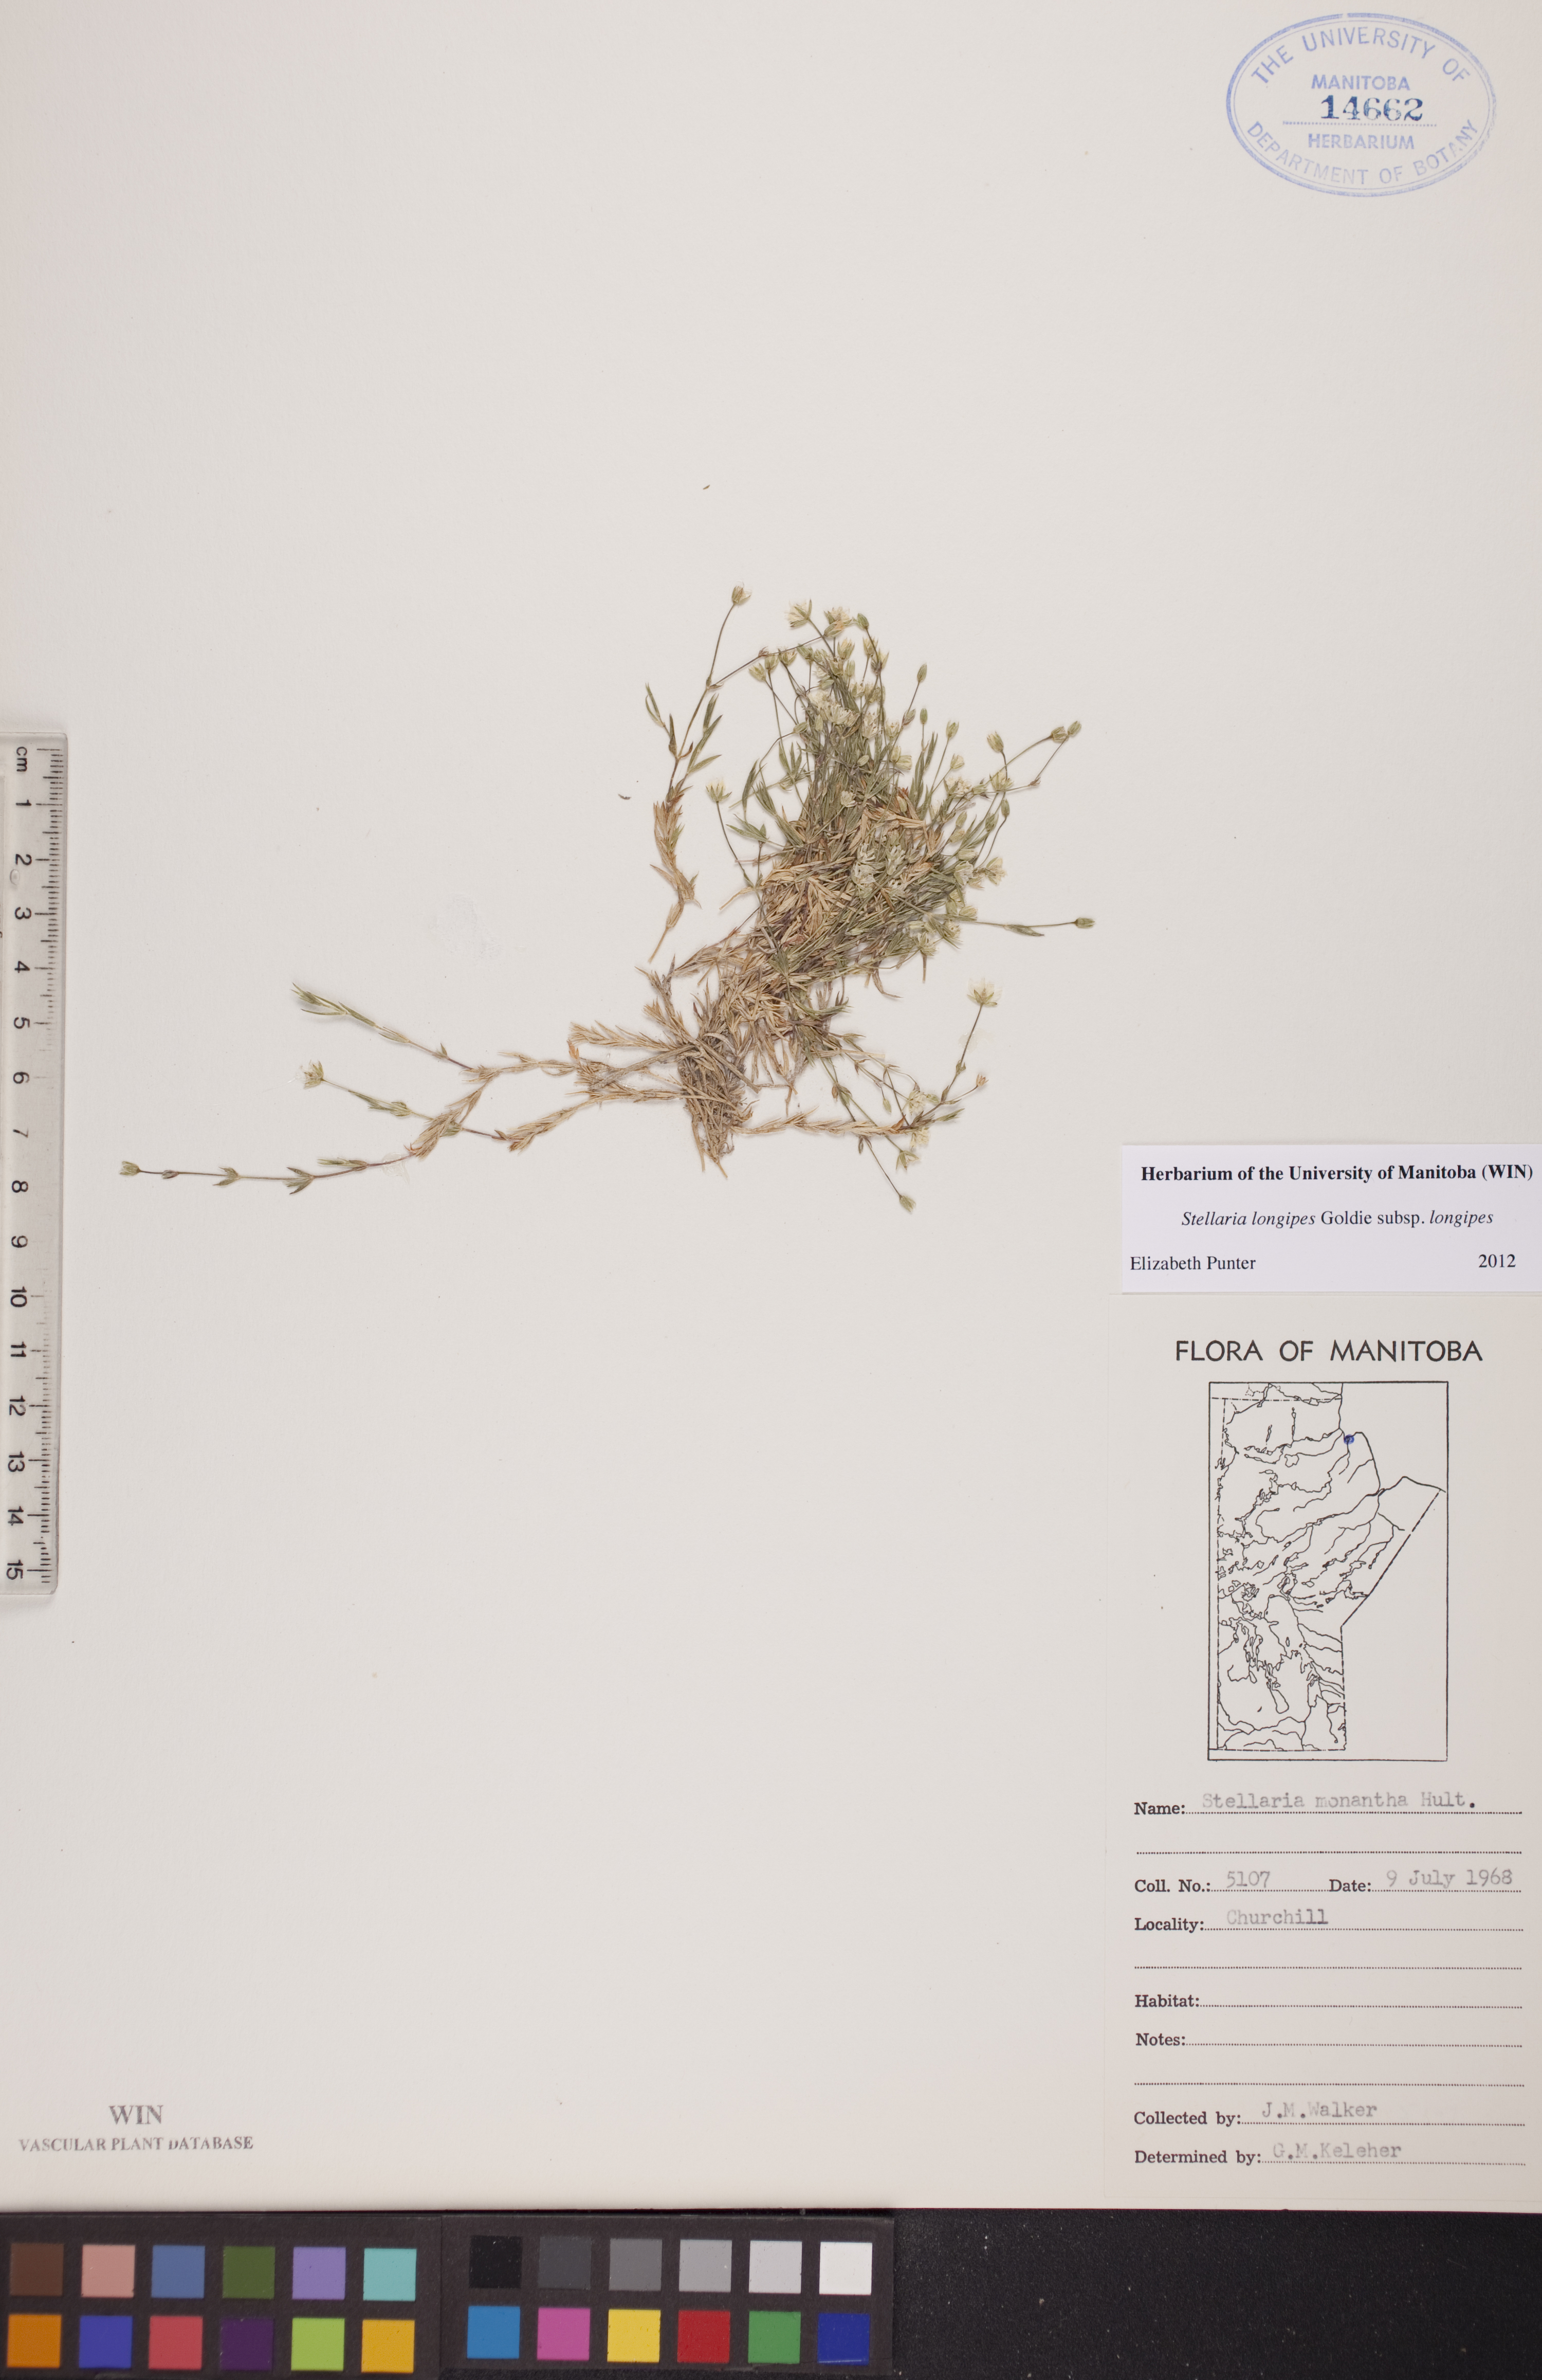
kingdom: Plantae
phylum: Tracheophyta
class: Magnoliopsida
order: Caryophyllales
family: Caryophyllaceae
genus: Stellaria
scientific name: Stellaria longipes
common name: Goldie's starwort
